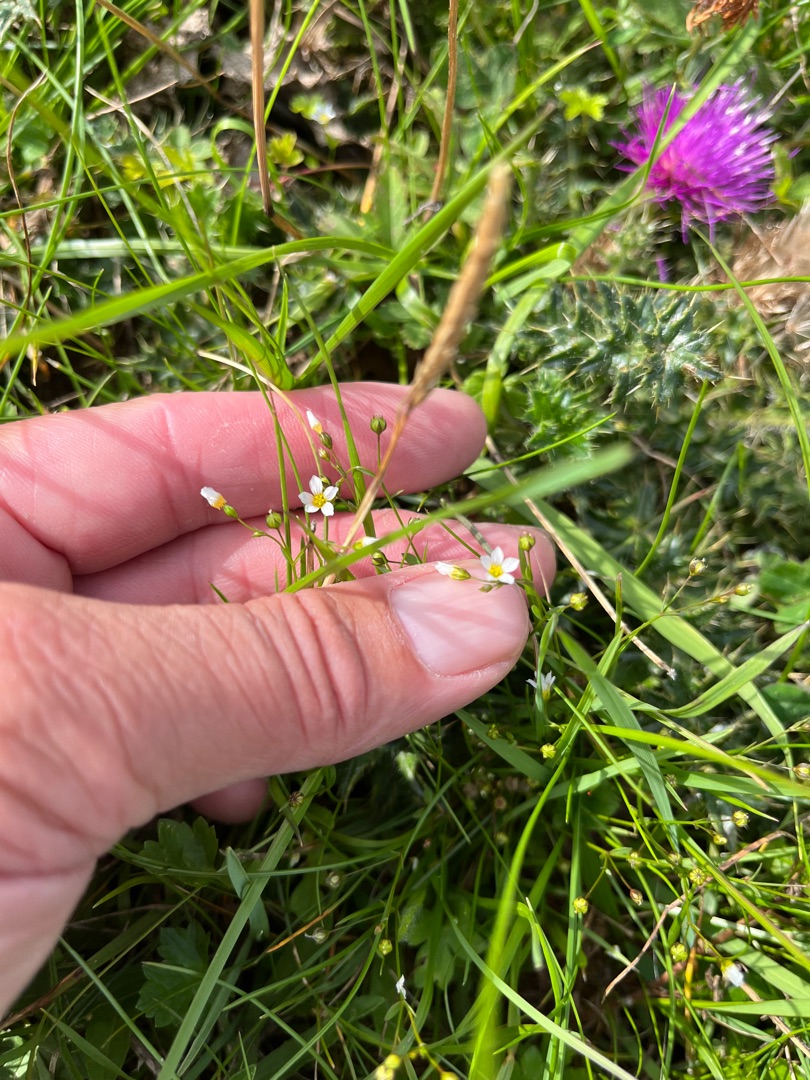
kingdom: Plantae
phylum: Tracheophyta
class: Magnoliopsida
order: Malpighiales
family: Linaceae
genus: Linum
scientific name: Linum catharticum
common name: Vild hør
